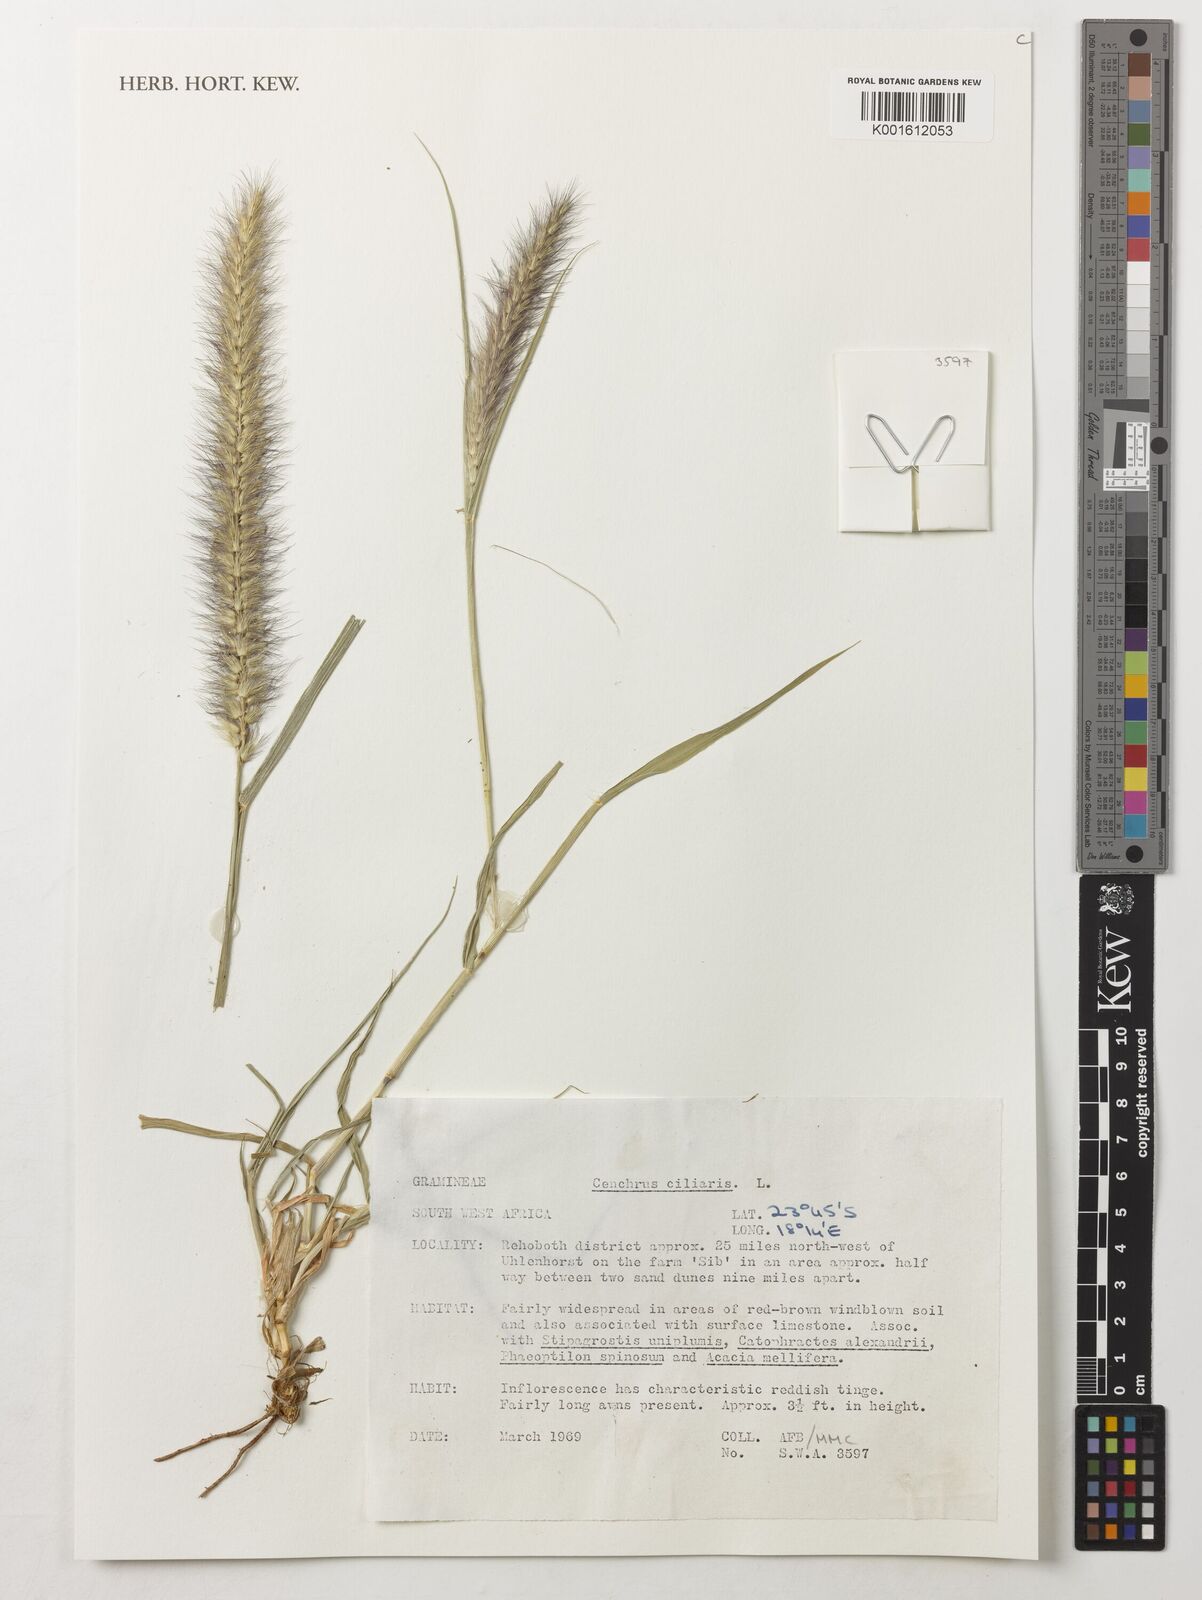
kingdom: Plantae
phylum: Tracheophyta
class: Liliopsida
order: Poales
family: Poaceae
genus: Cenchrus
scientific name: Cenchrus ciliaris
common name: Buffelgrass
